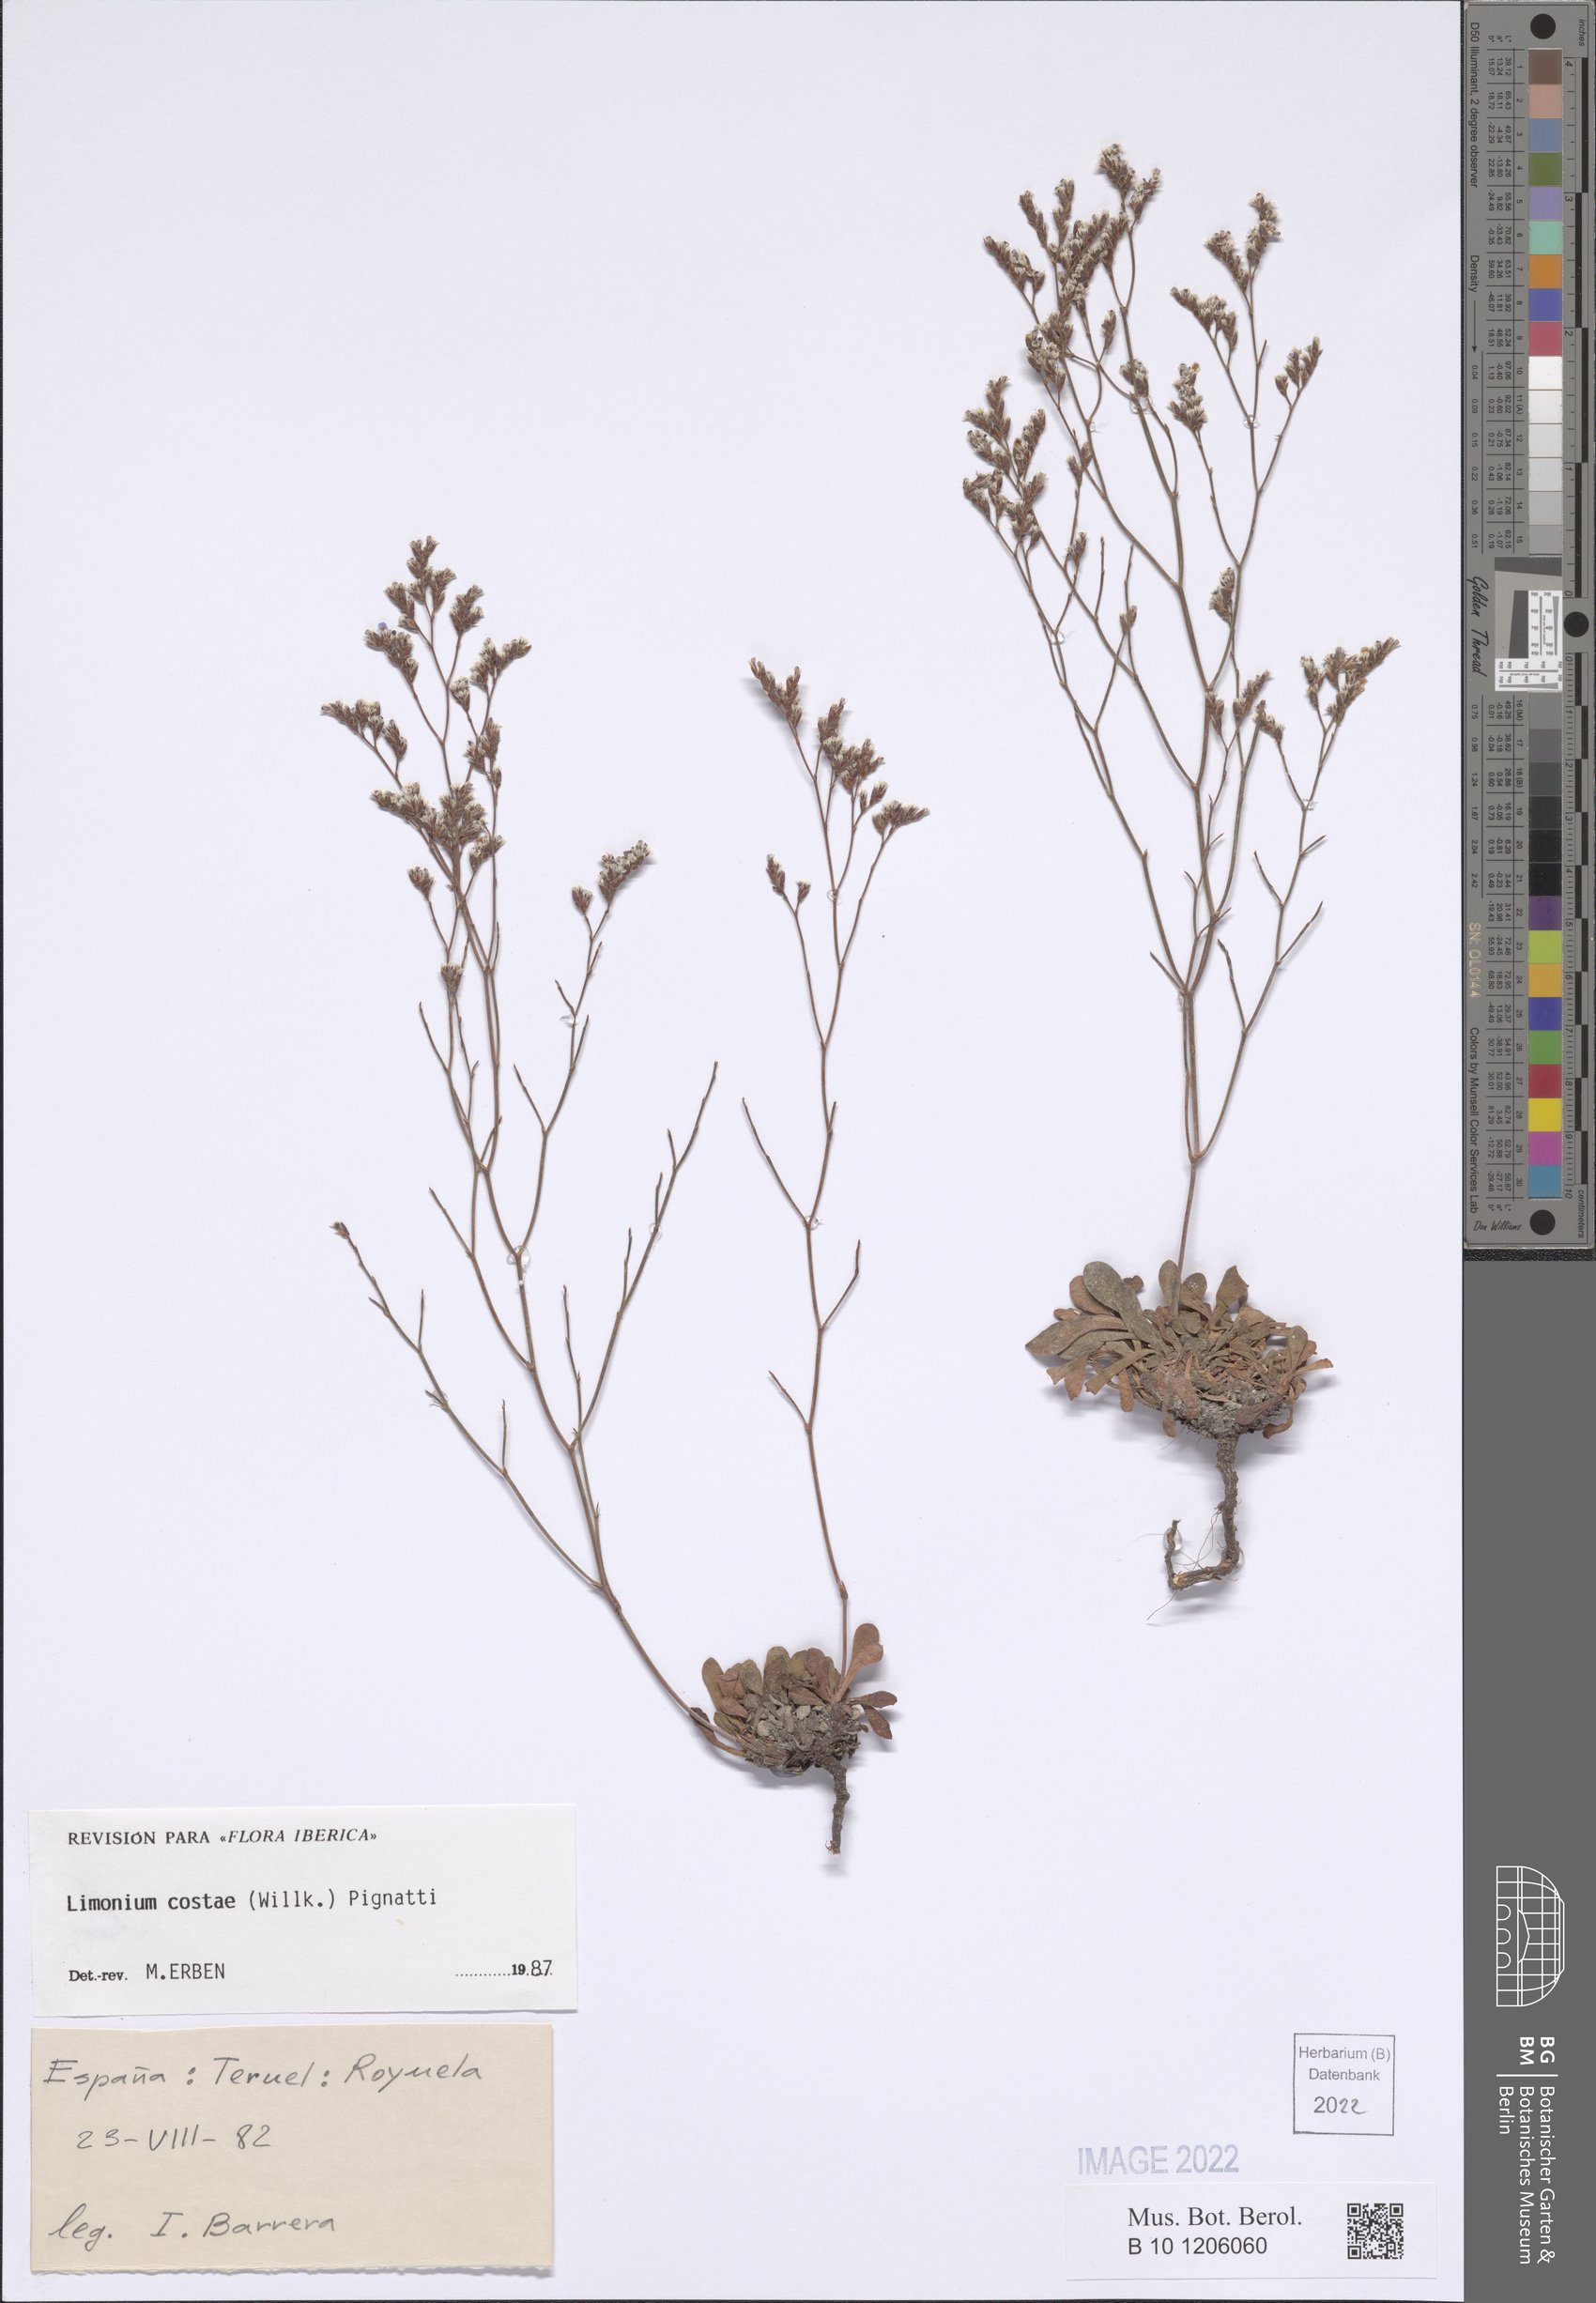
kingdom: Plantae
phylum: Tracheophyta
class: Magnoliopsida
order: Caryophyllales
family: Plumbaginaceae
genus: Limonium
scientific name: Limonium costae
